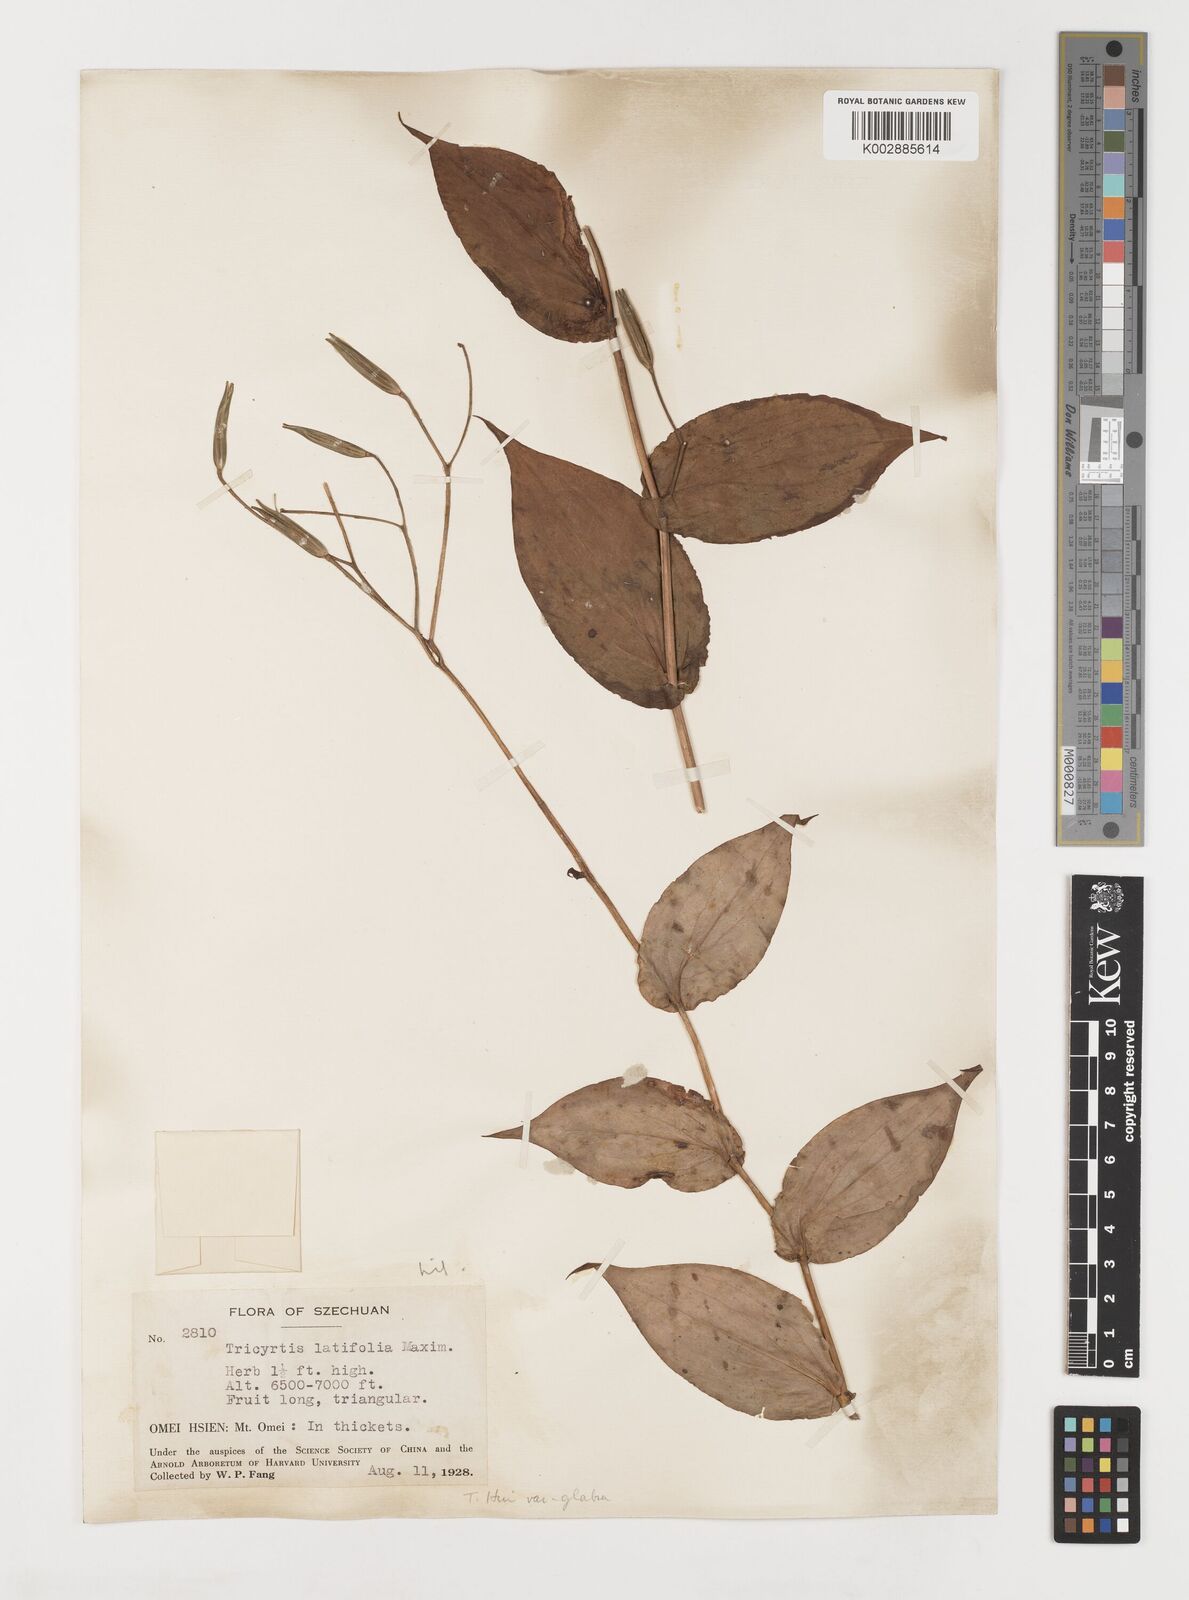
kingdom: Plantae
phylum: Tracheophyta
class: Liliopsida
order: Liliales
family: Liliaceae
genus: Tricyrtis
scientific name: Tricyrtis latifolia
